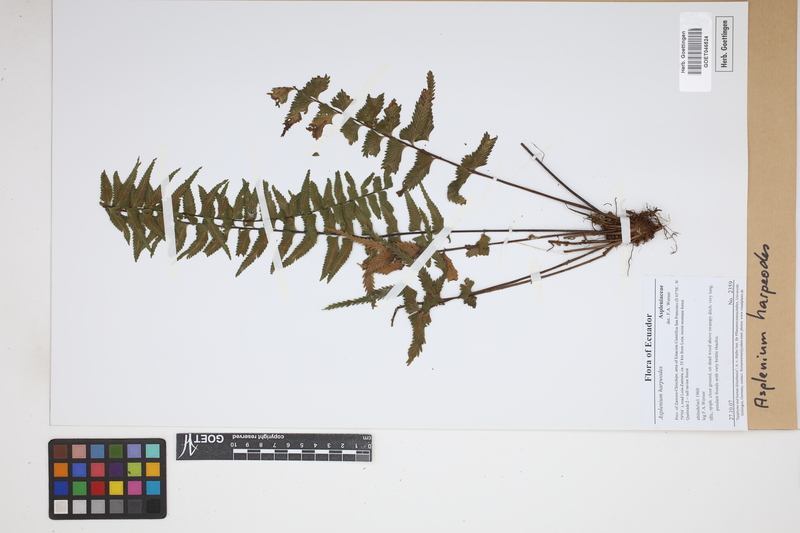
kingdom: Plantae
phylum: Tracheophyta
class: Polypodiopsida
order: Polypodiales
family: Aspleniaceae
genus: Asplenium
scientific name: Asplenium harpeodes
